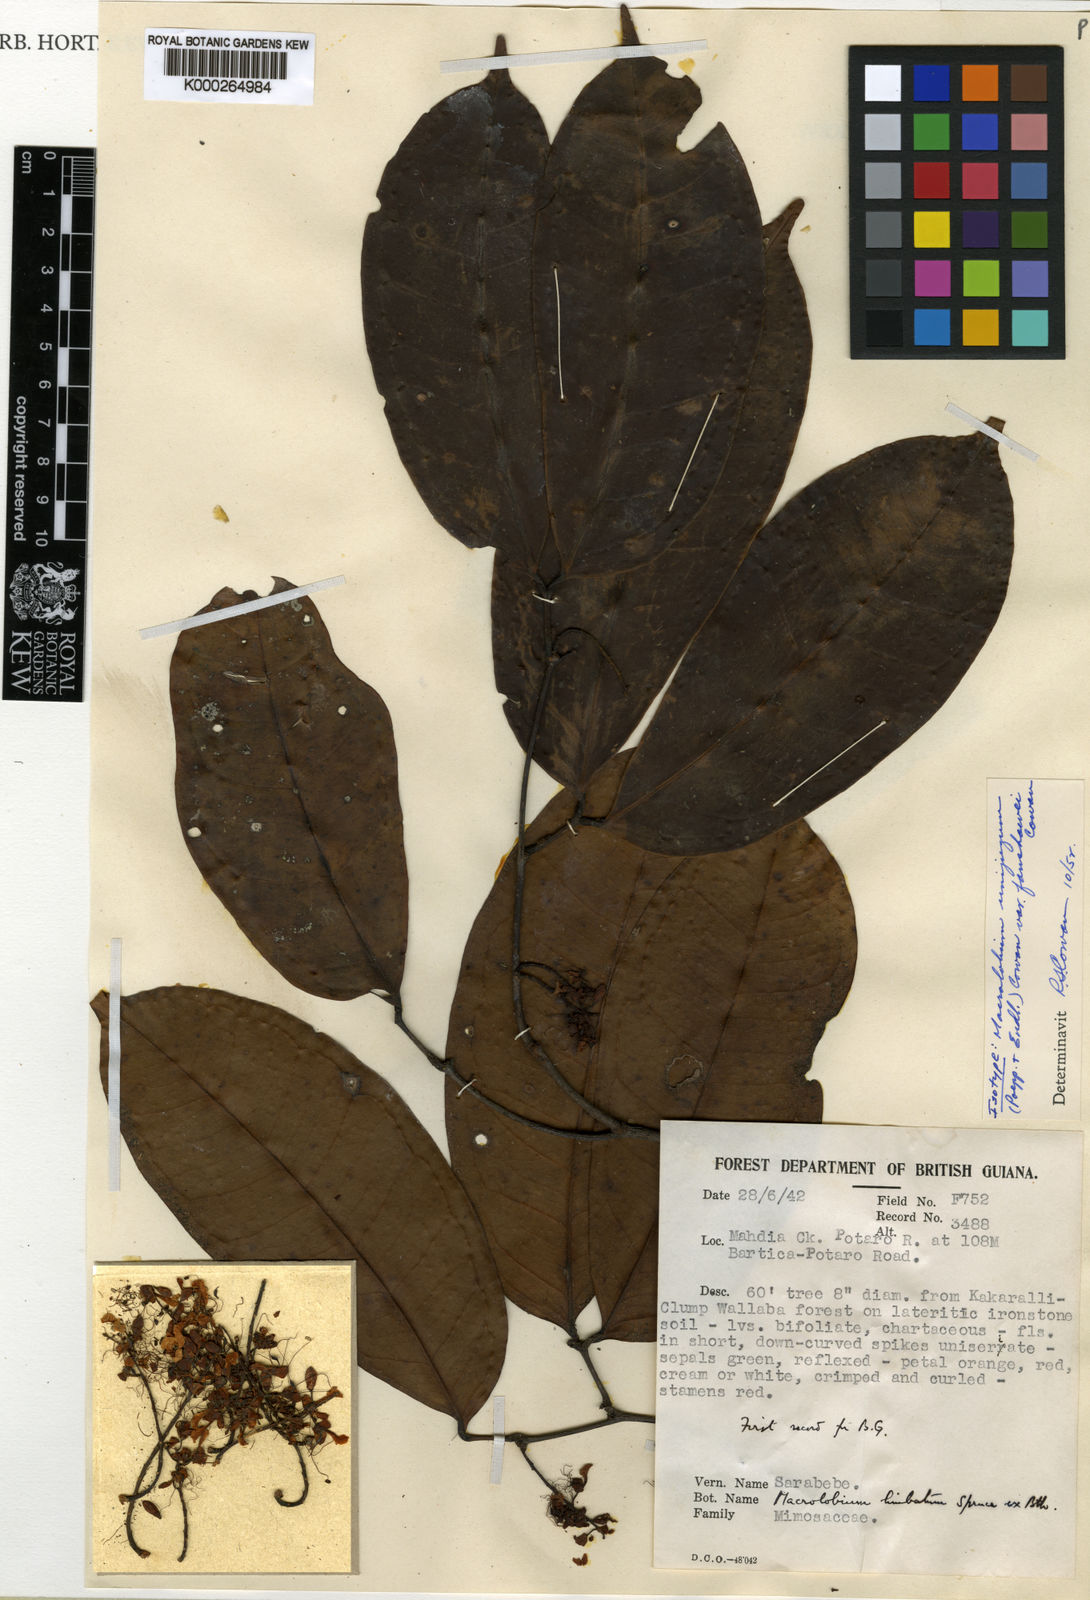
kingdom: Plantae
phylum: Tracheophyta
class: Magnoliopsida
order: Fabales
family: Fabaceae
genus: Macrolobium
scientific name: Macrolobium limbatum
